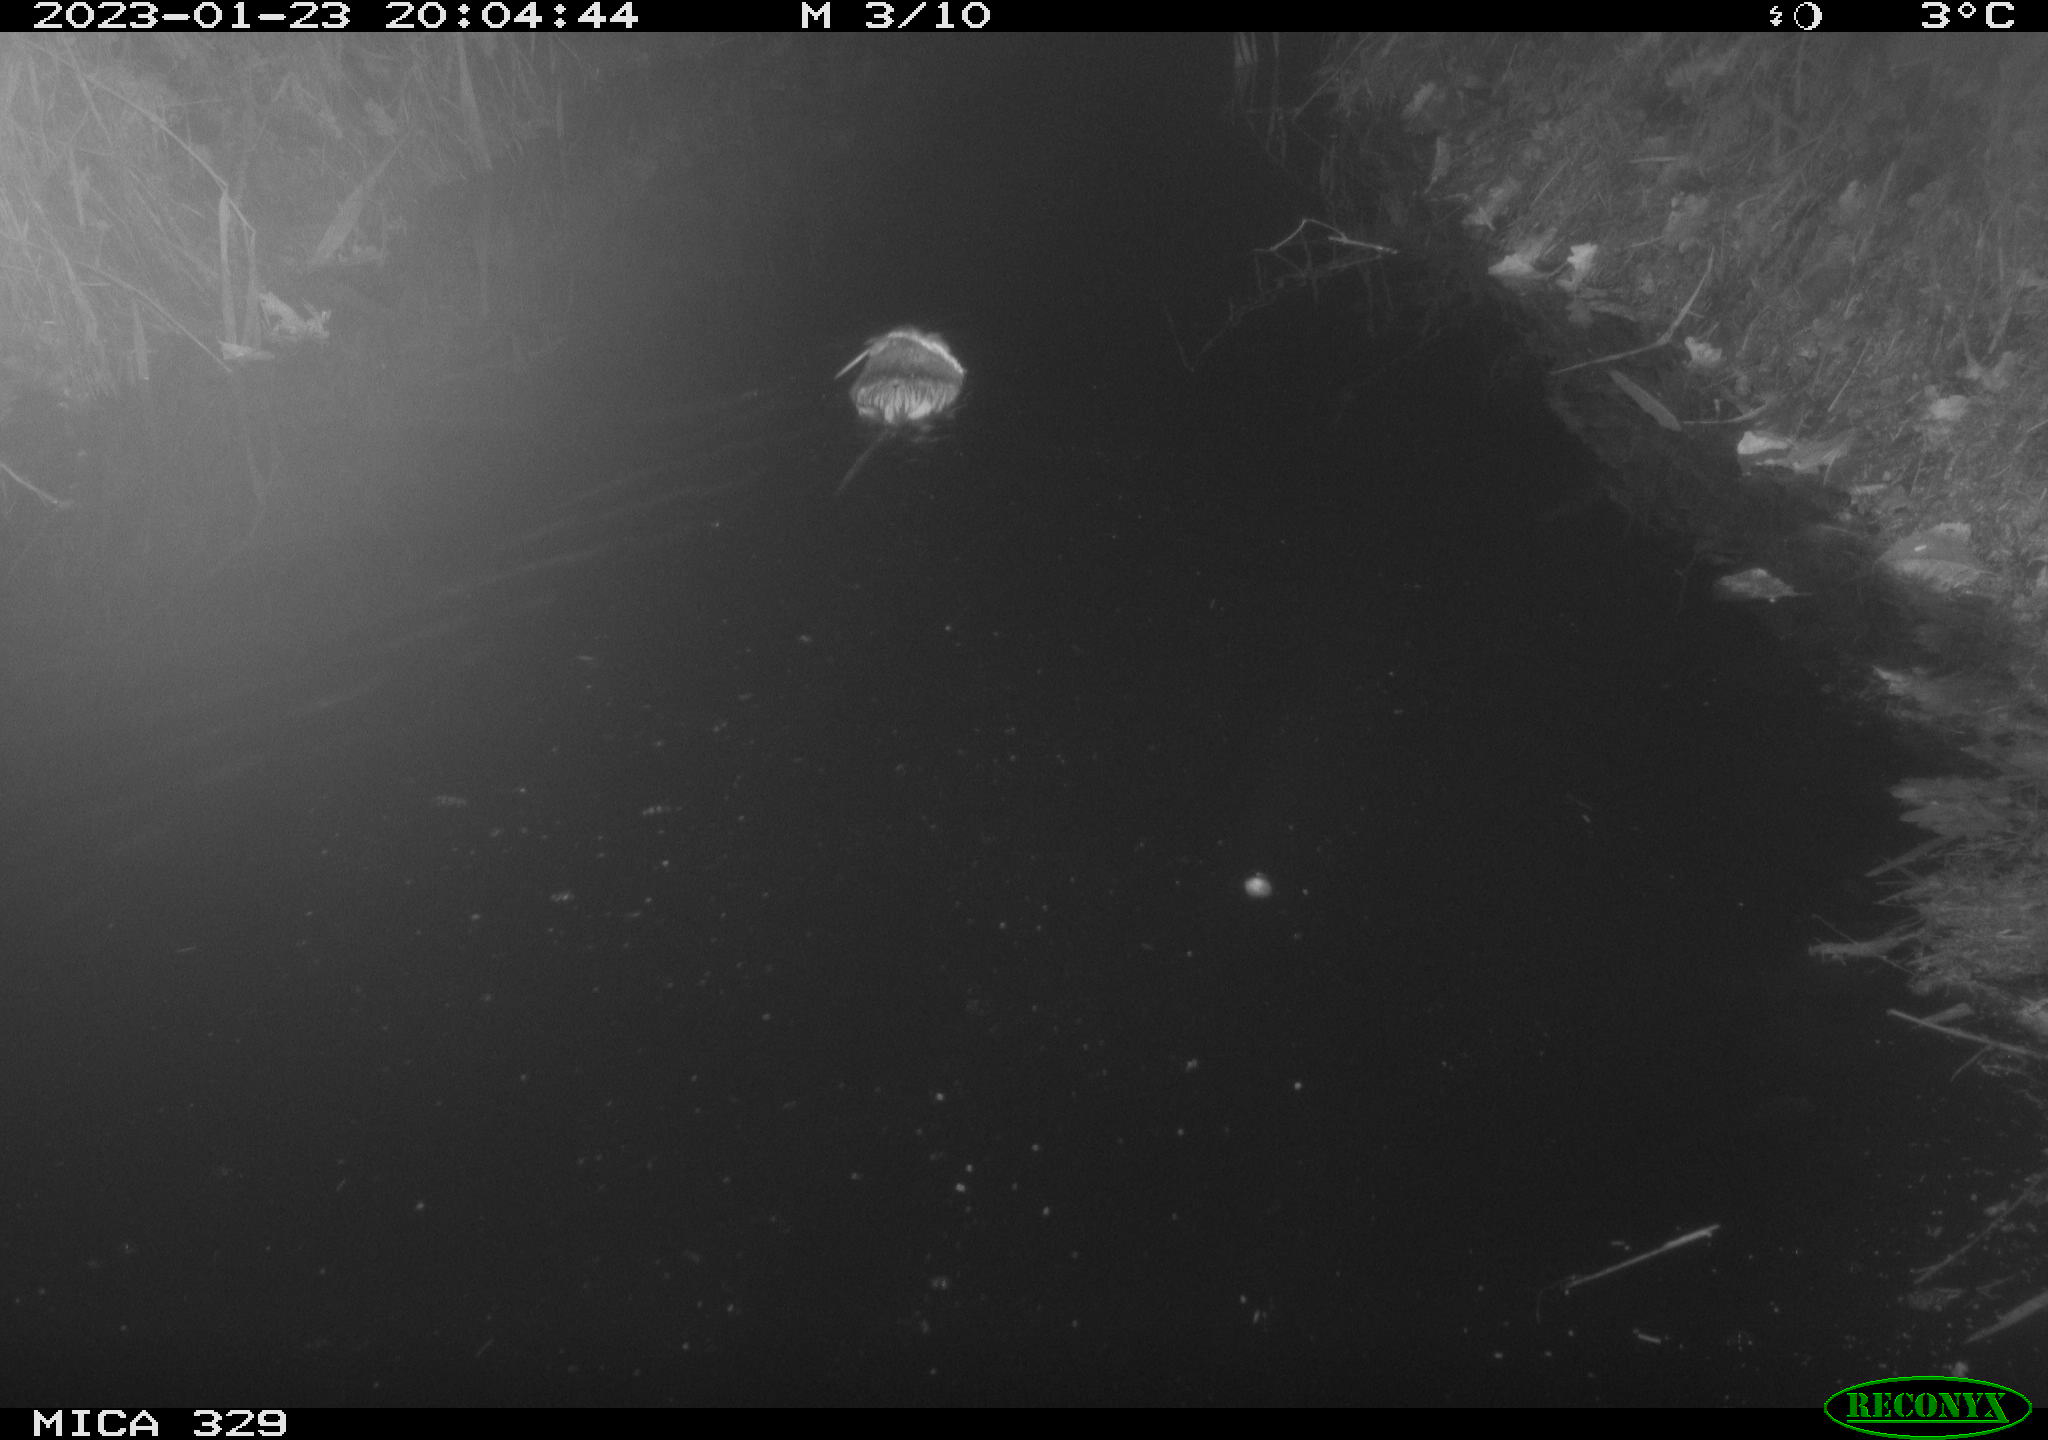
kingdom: Animalia
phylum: Chordata
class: Mammalia
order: Rodentia
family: Cricetidae
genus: Ondatra
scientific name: Ondatra zibethicus
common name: Muskrat
